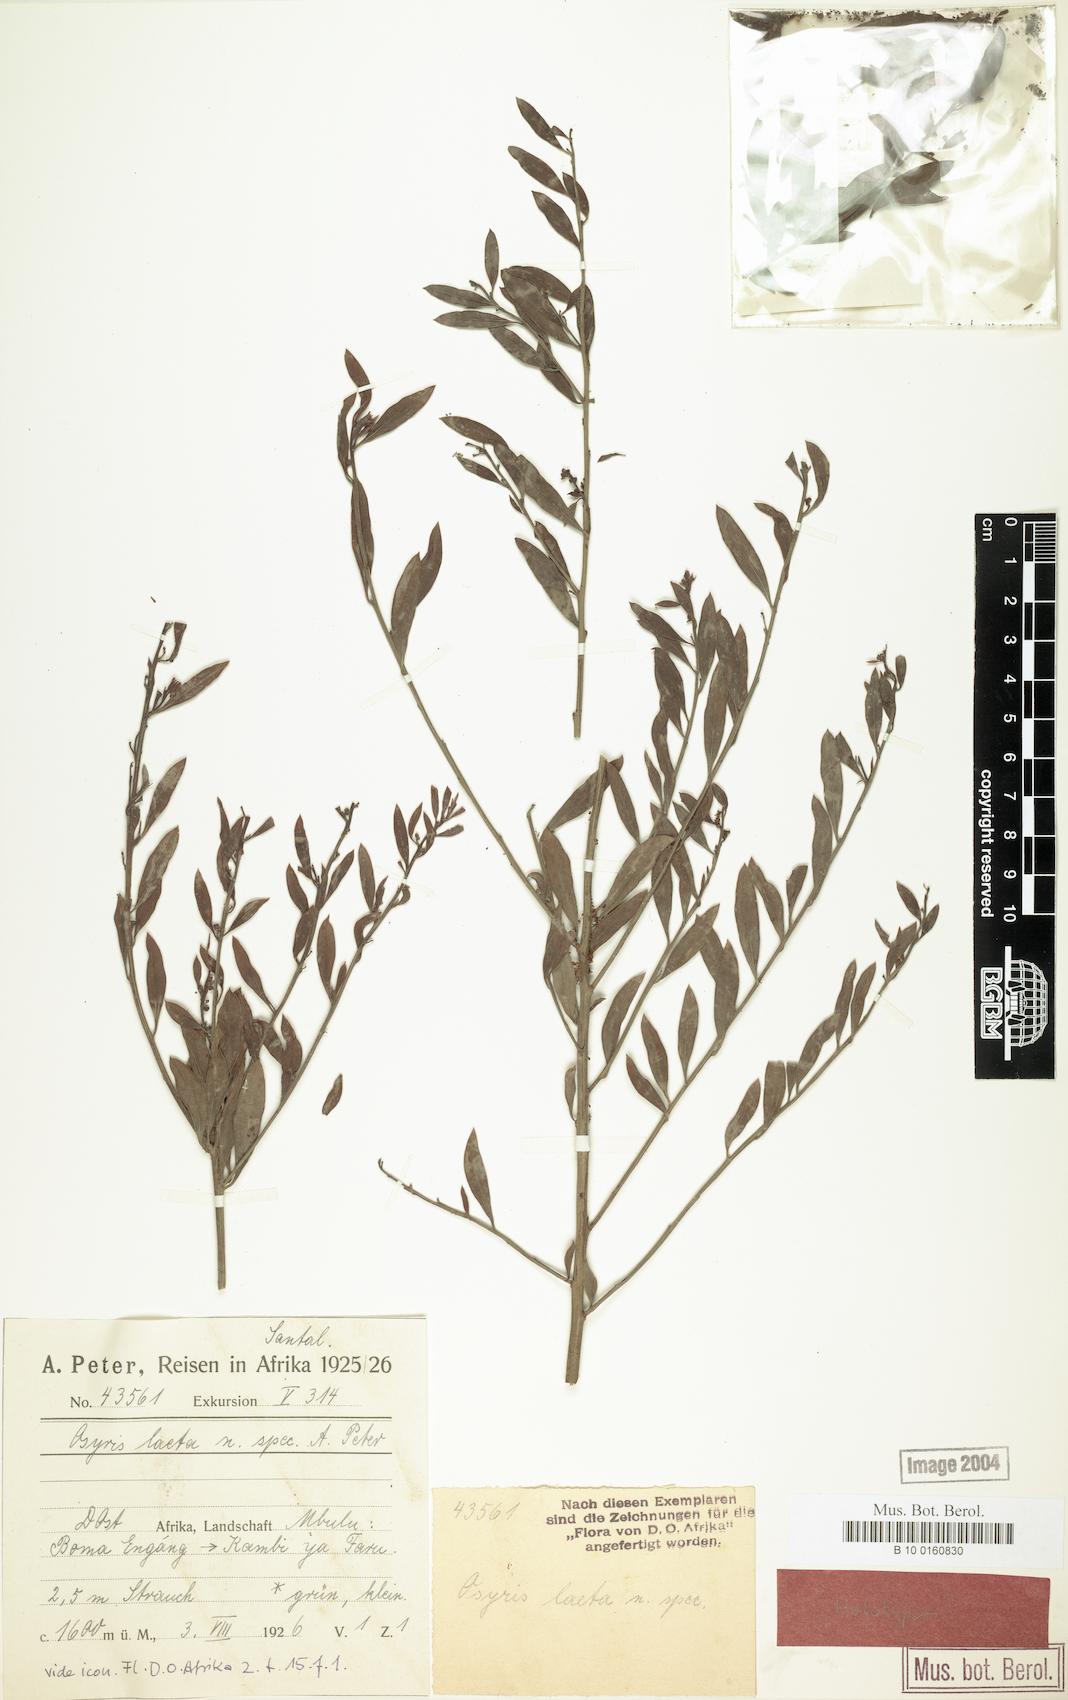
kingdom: Plantae
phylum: Tracheophyta
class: Magnoliopsida
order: Santalales
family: Santalaceae
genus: Osyris
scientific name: Osyris lanceolata
